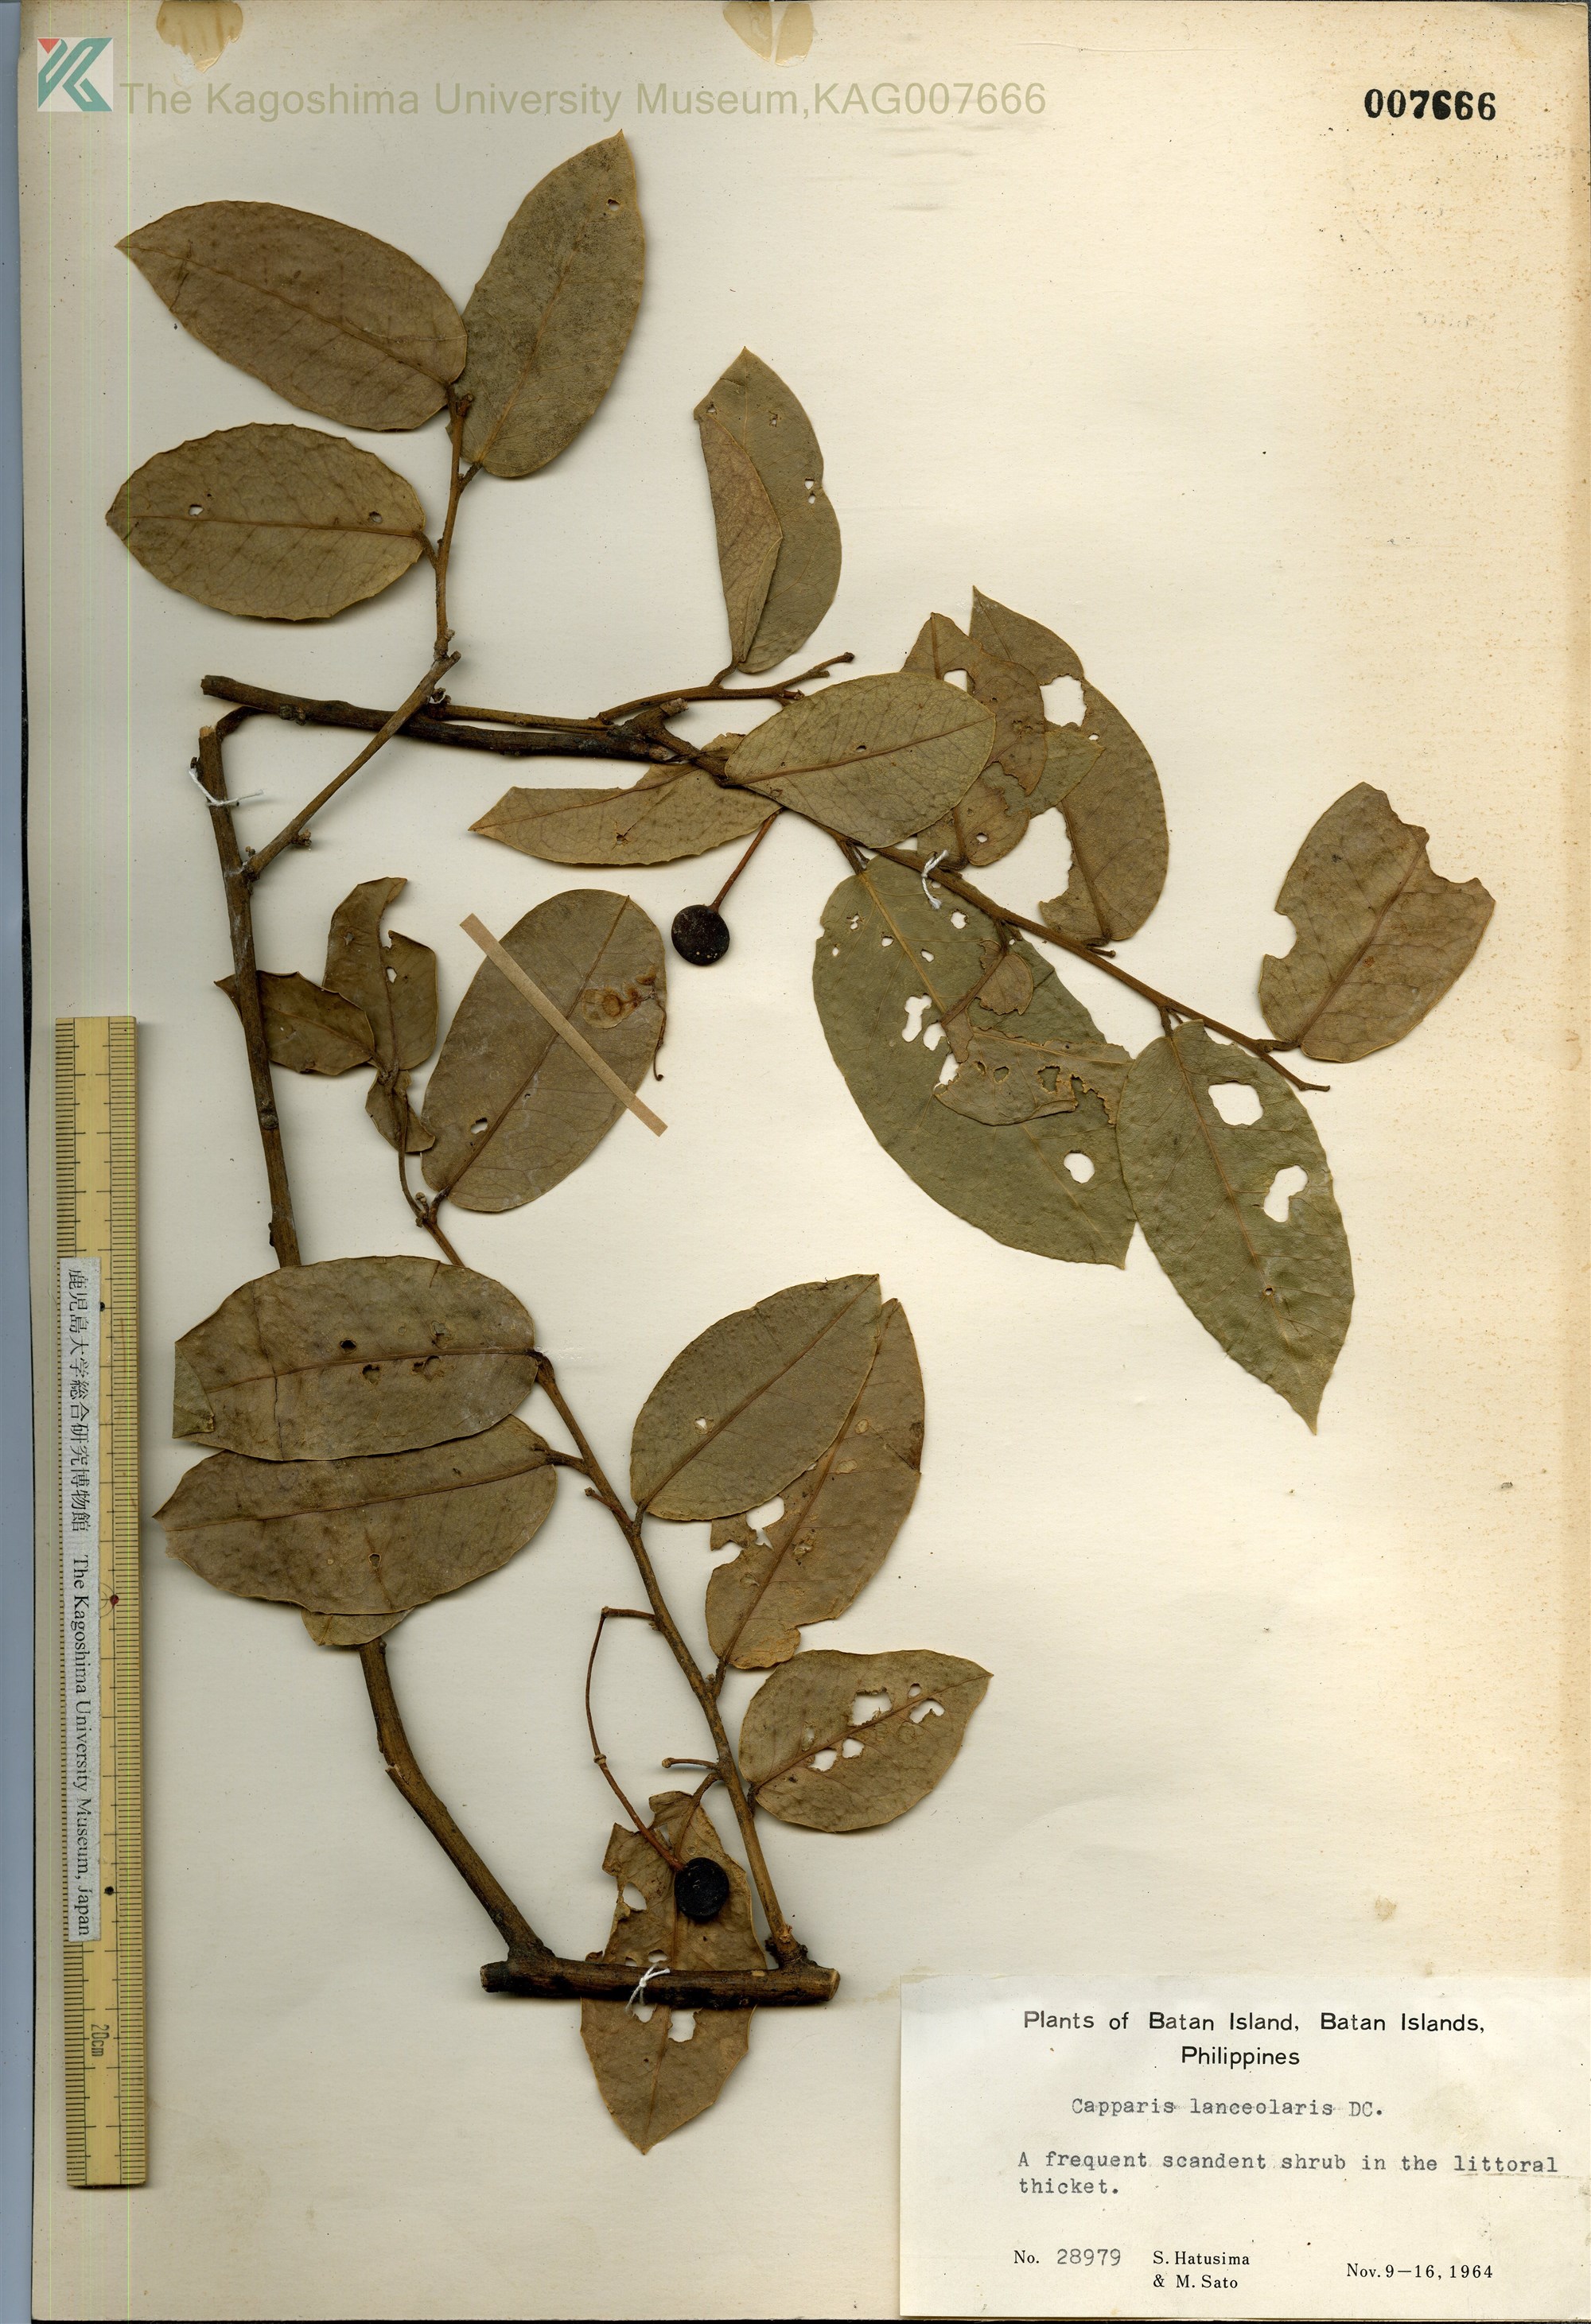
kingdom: Plantae
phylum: Tracheophyta
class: Magnoliopsida
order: Brassicales
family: Capparaceae
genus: Capparis
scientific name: Capparis lanceolaris
